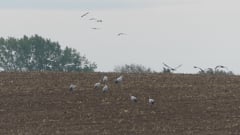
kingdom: Animalia
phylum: Chordata
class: Aves
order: Gruiformes
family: Gruidae
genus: Grus
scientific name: Grus grus
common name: Common crane
